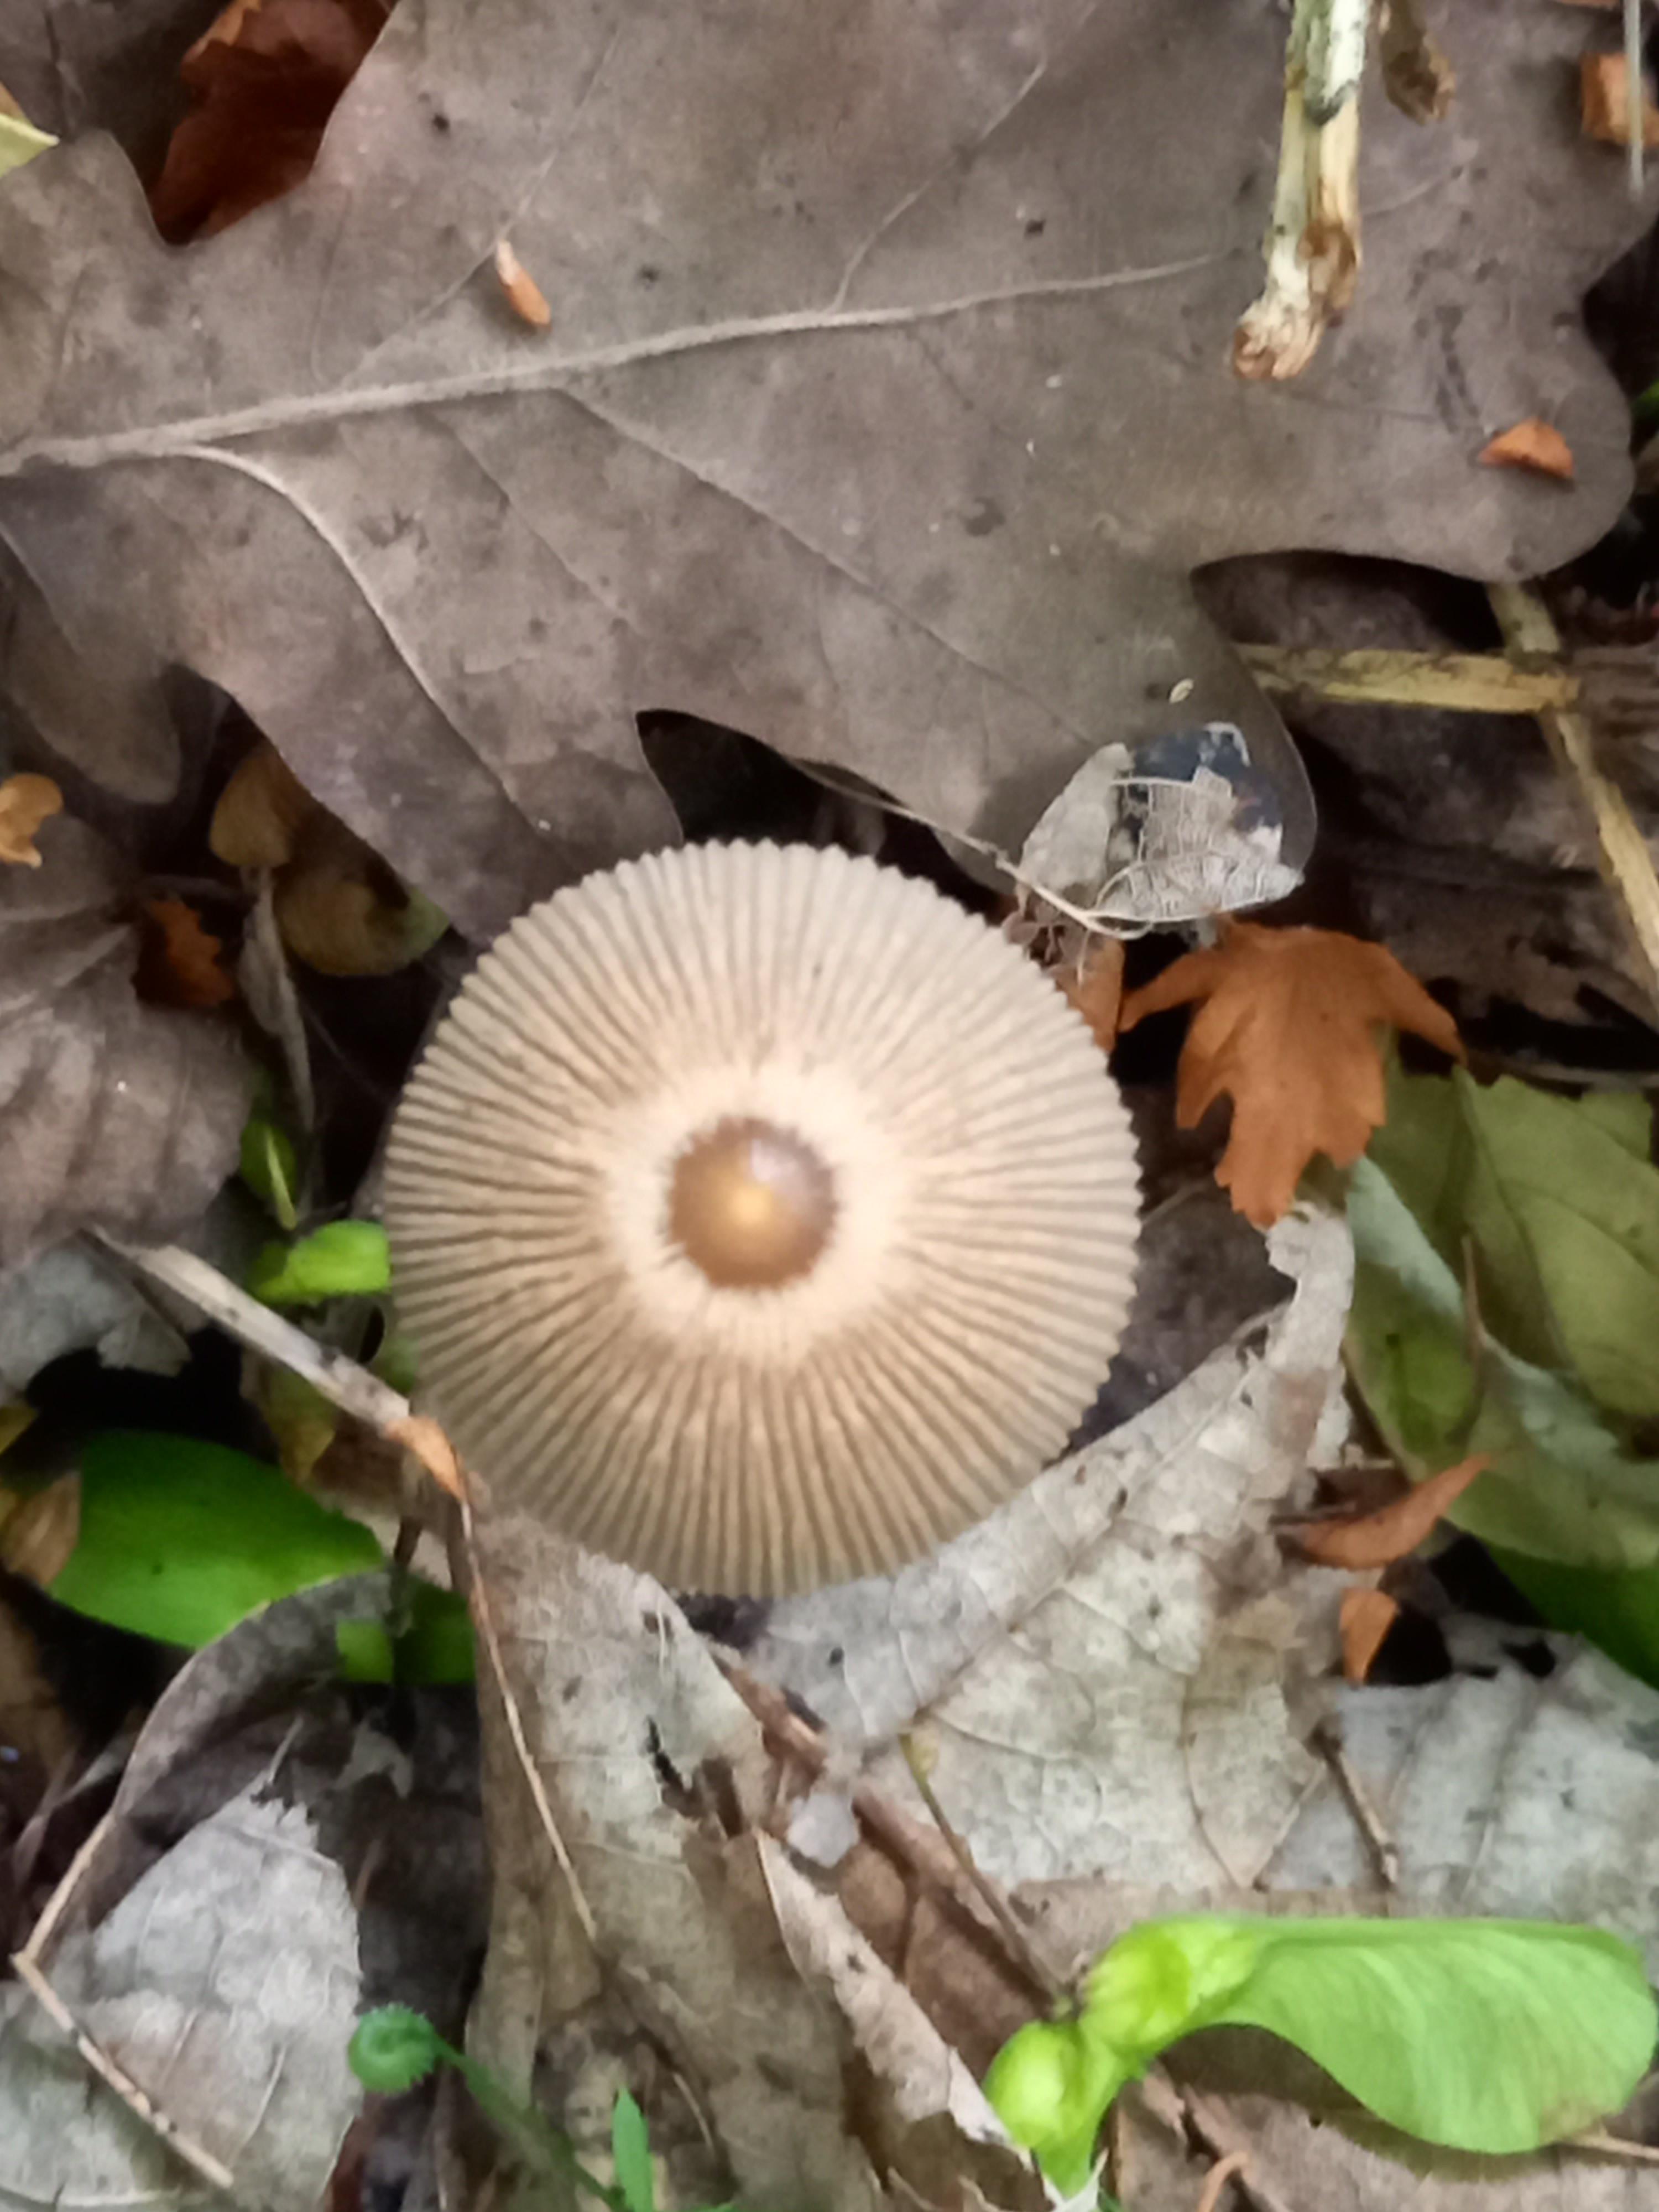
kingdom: Fungi
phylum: Basidiomycota
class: Agaricomycetes
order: Agaricales
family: Psathyrellaceae
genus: Parasola
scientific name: Parasola
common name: hjulhat
